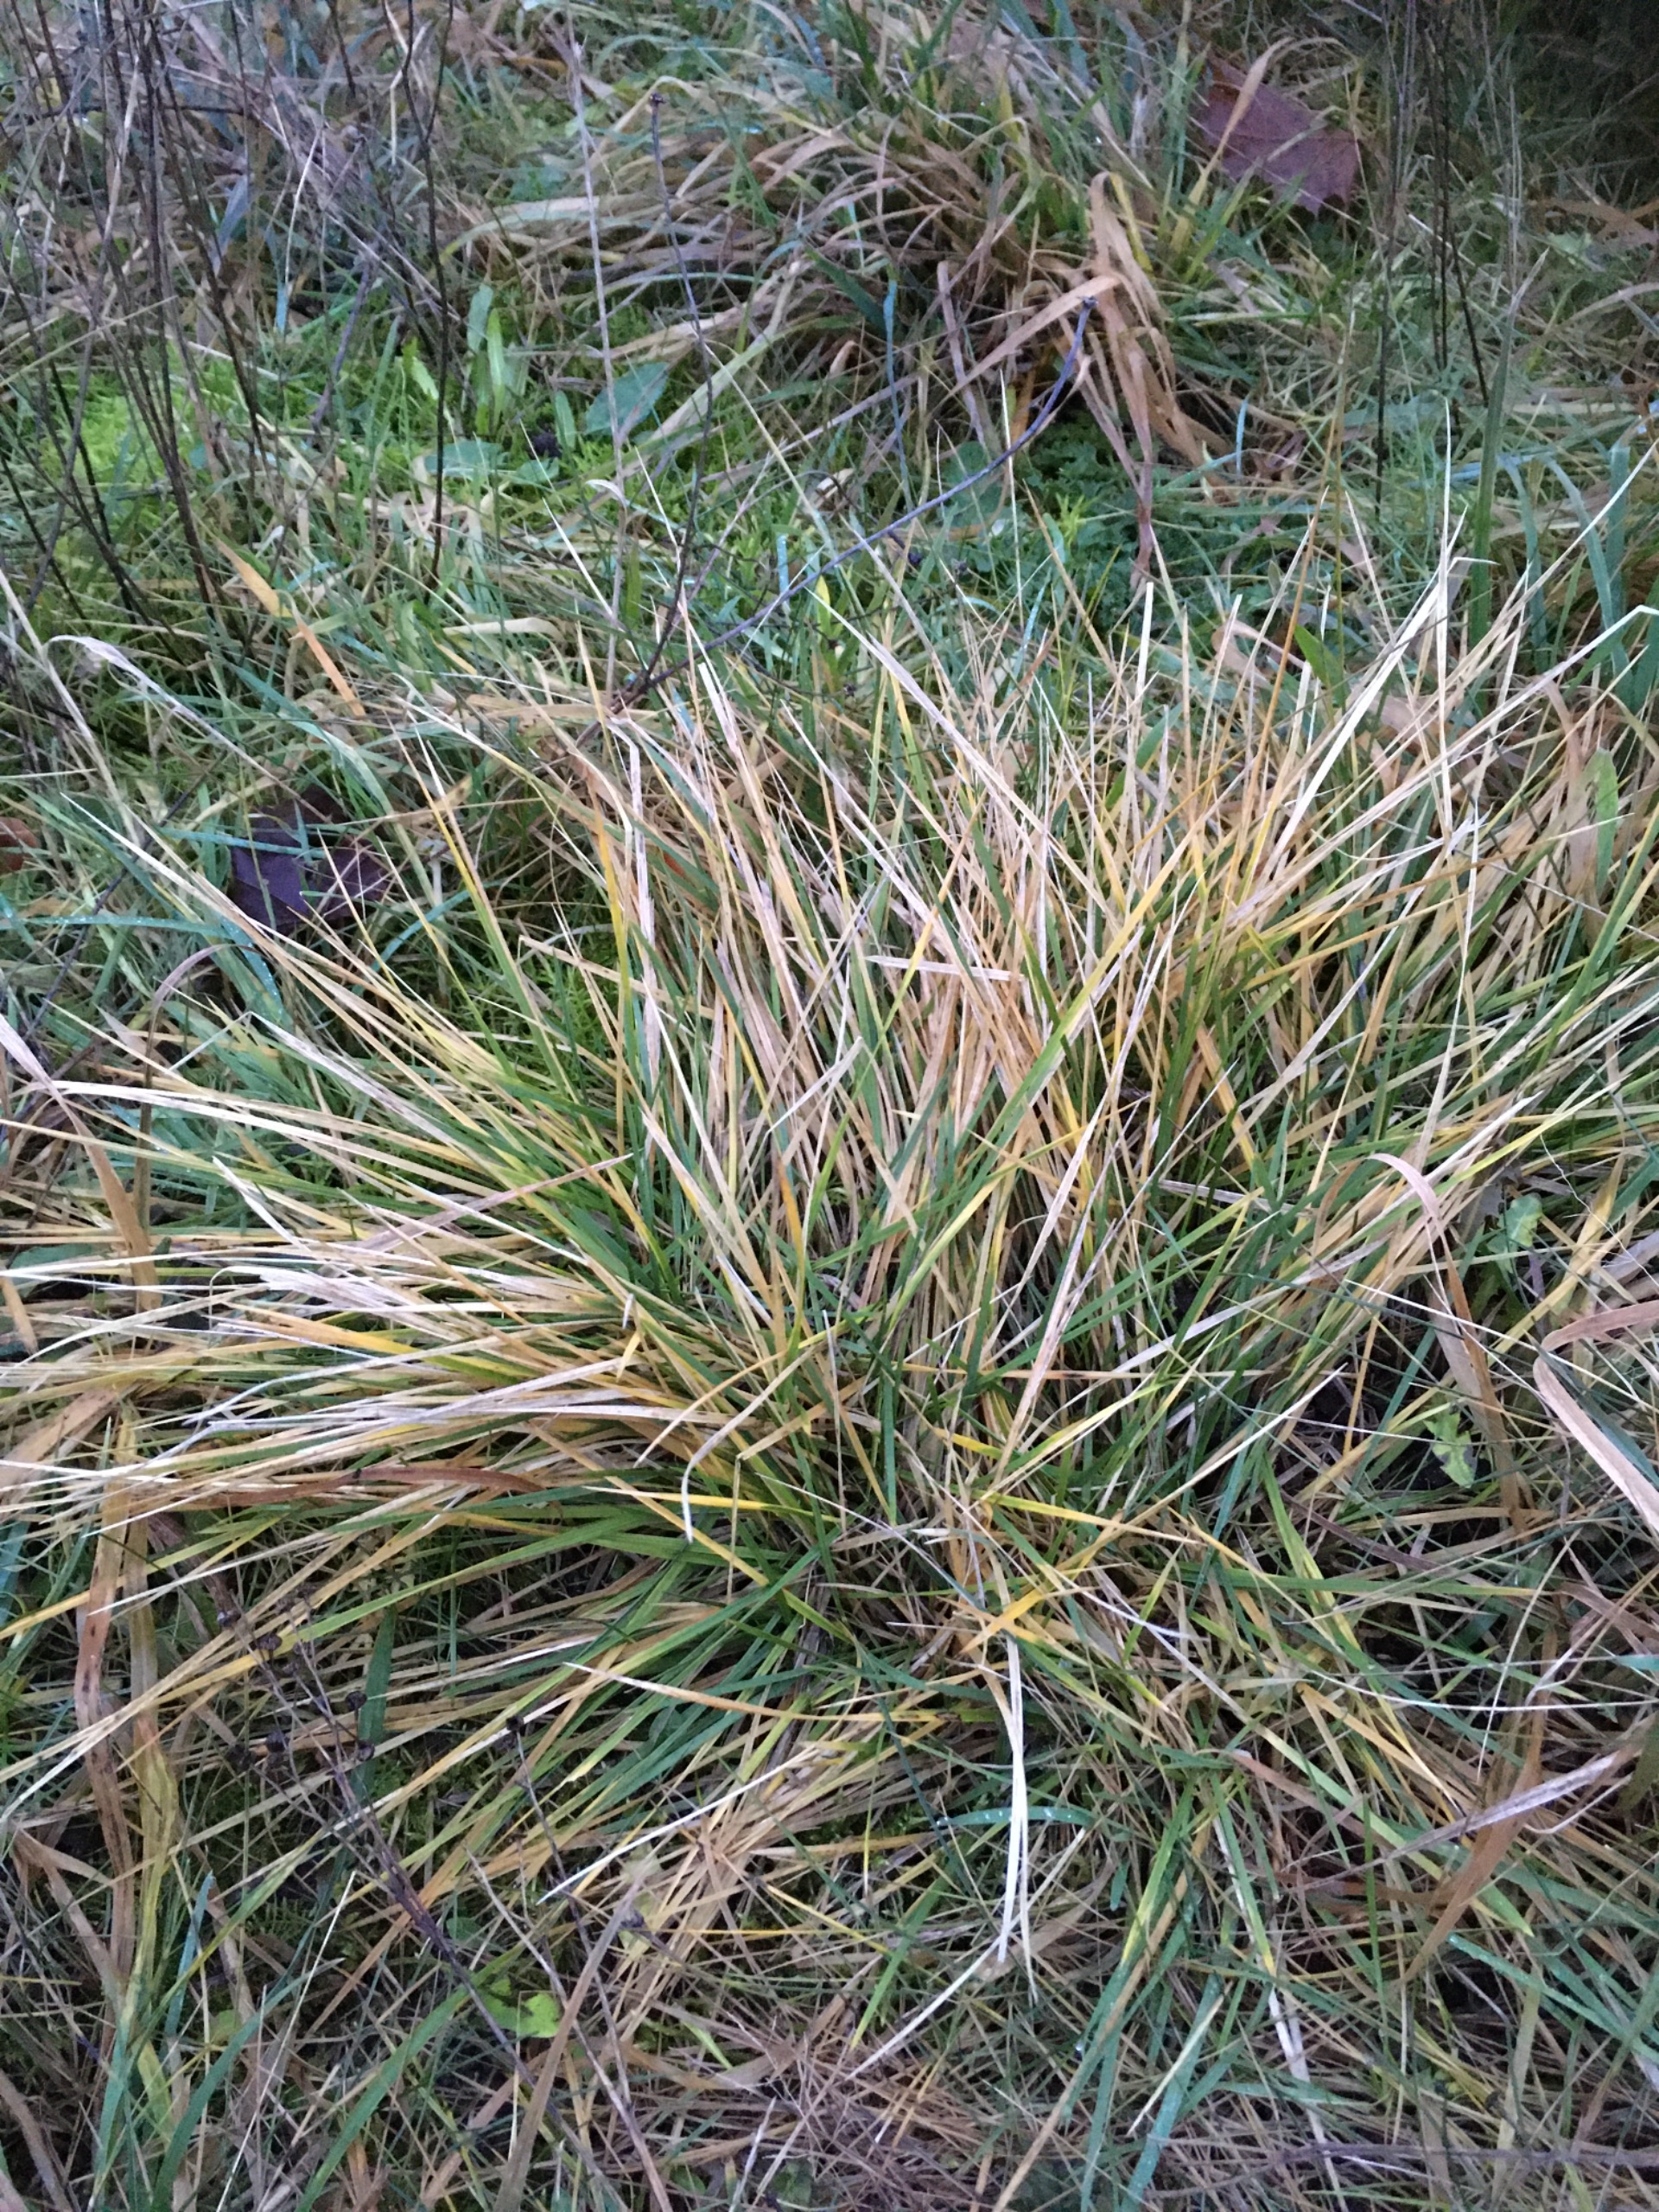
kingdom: Plantae
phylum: Tracheophyta
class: Liliopsida
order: Poales
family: Poaceae
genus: Deschampsia
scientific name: Deschampsia cespitosa
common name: Mose-bunke
